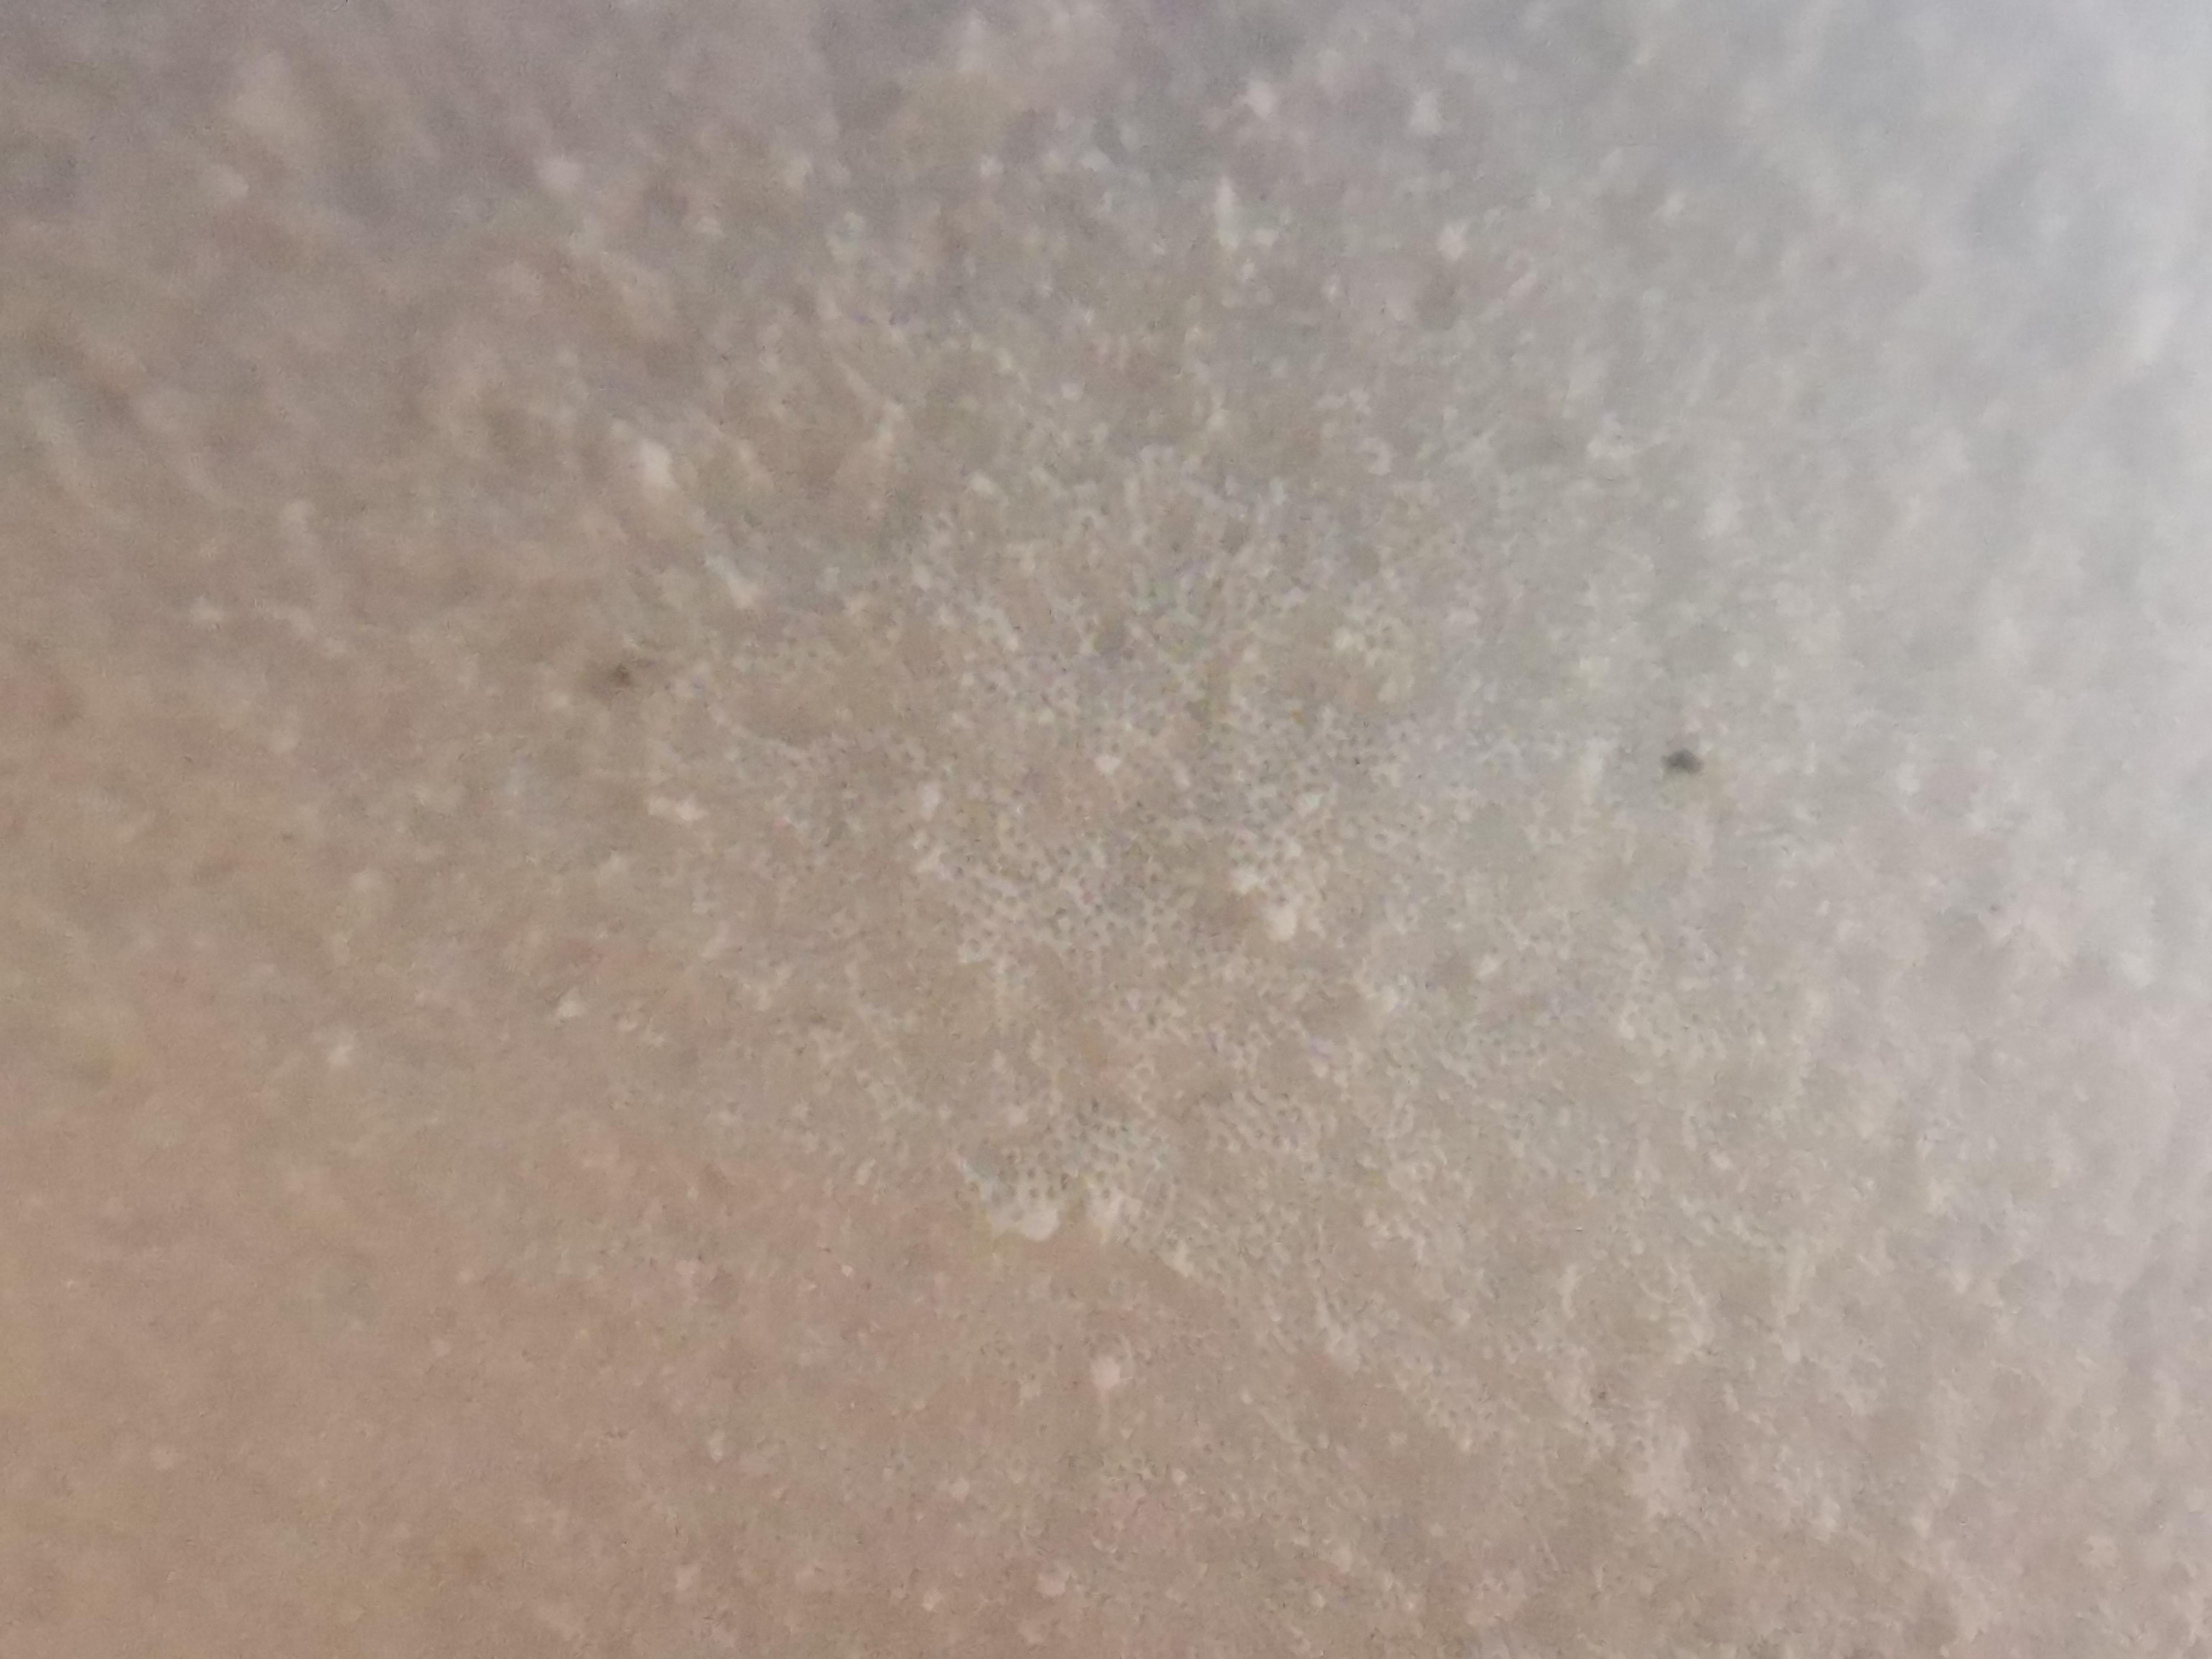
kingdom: Fungi
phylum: Basidiomycota
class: Agaricomycetes
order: Polyporales
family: Fomitopsidaceae
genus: Fomitopsis
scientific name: Fomitopsis betulina
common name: birkeporesvamp
